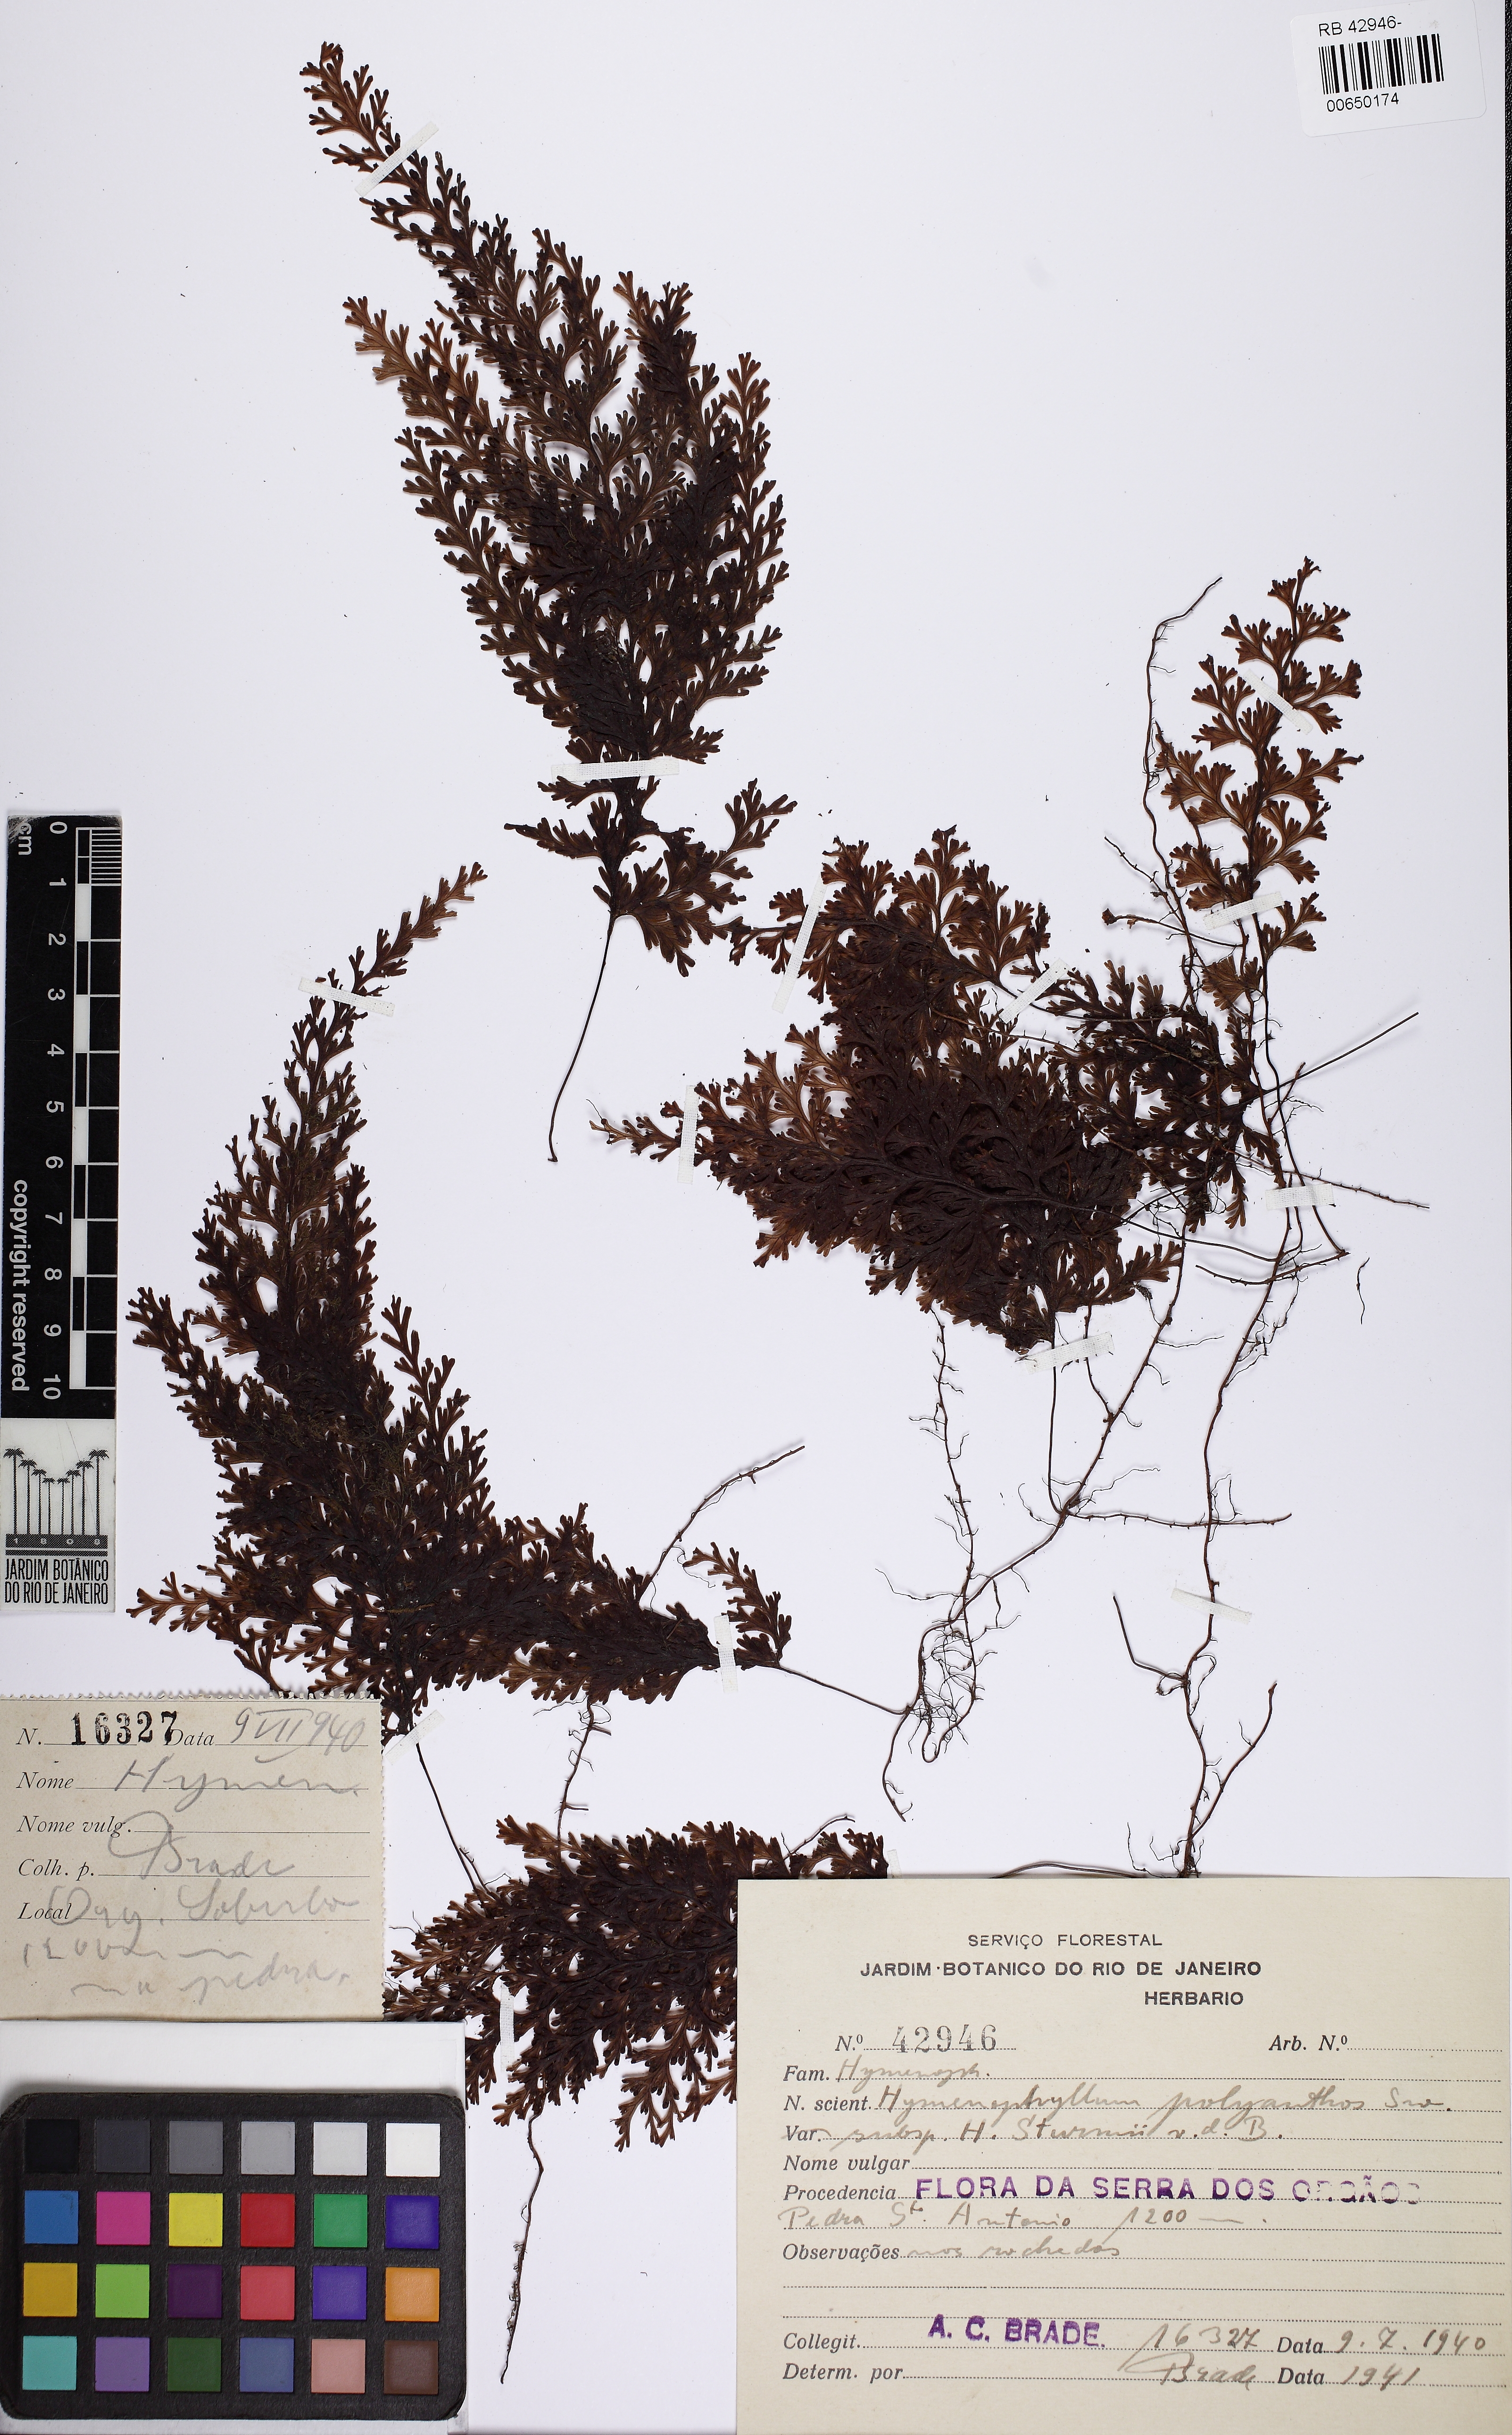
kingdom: Plantae
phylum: Tracheophyta
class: Polypodiopsida
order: Hymenophyllales
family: Hymenophyllaceae
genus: Hymenophyllum
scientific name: Hymenophyllum polyanthos
